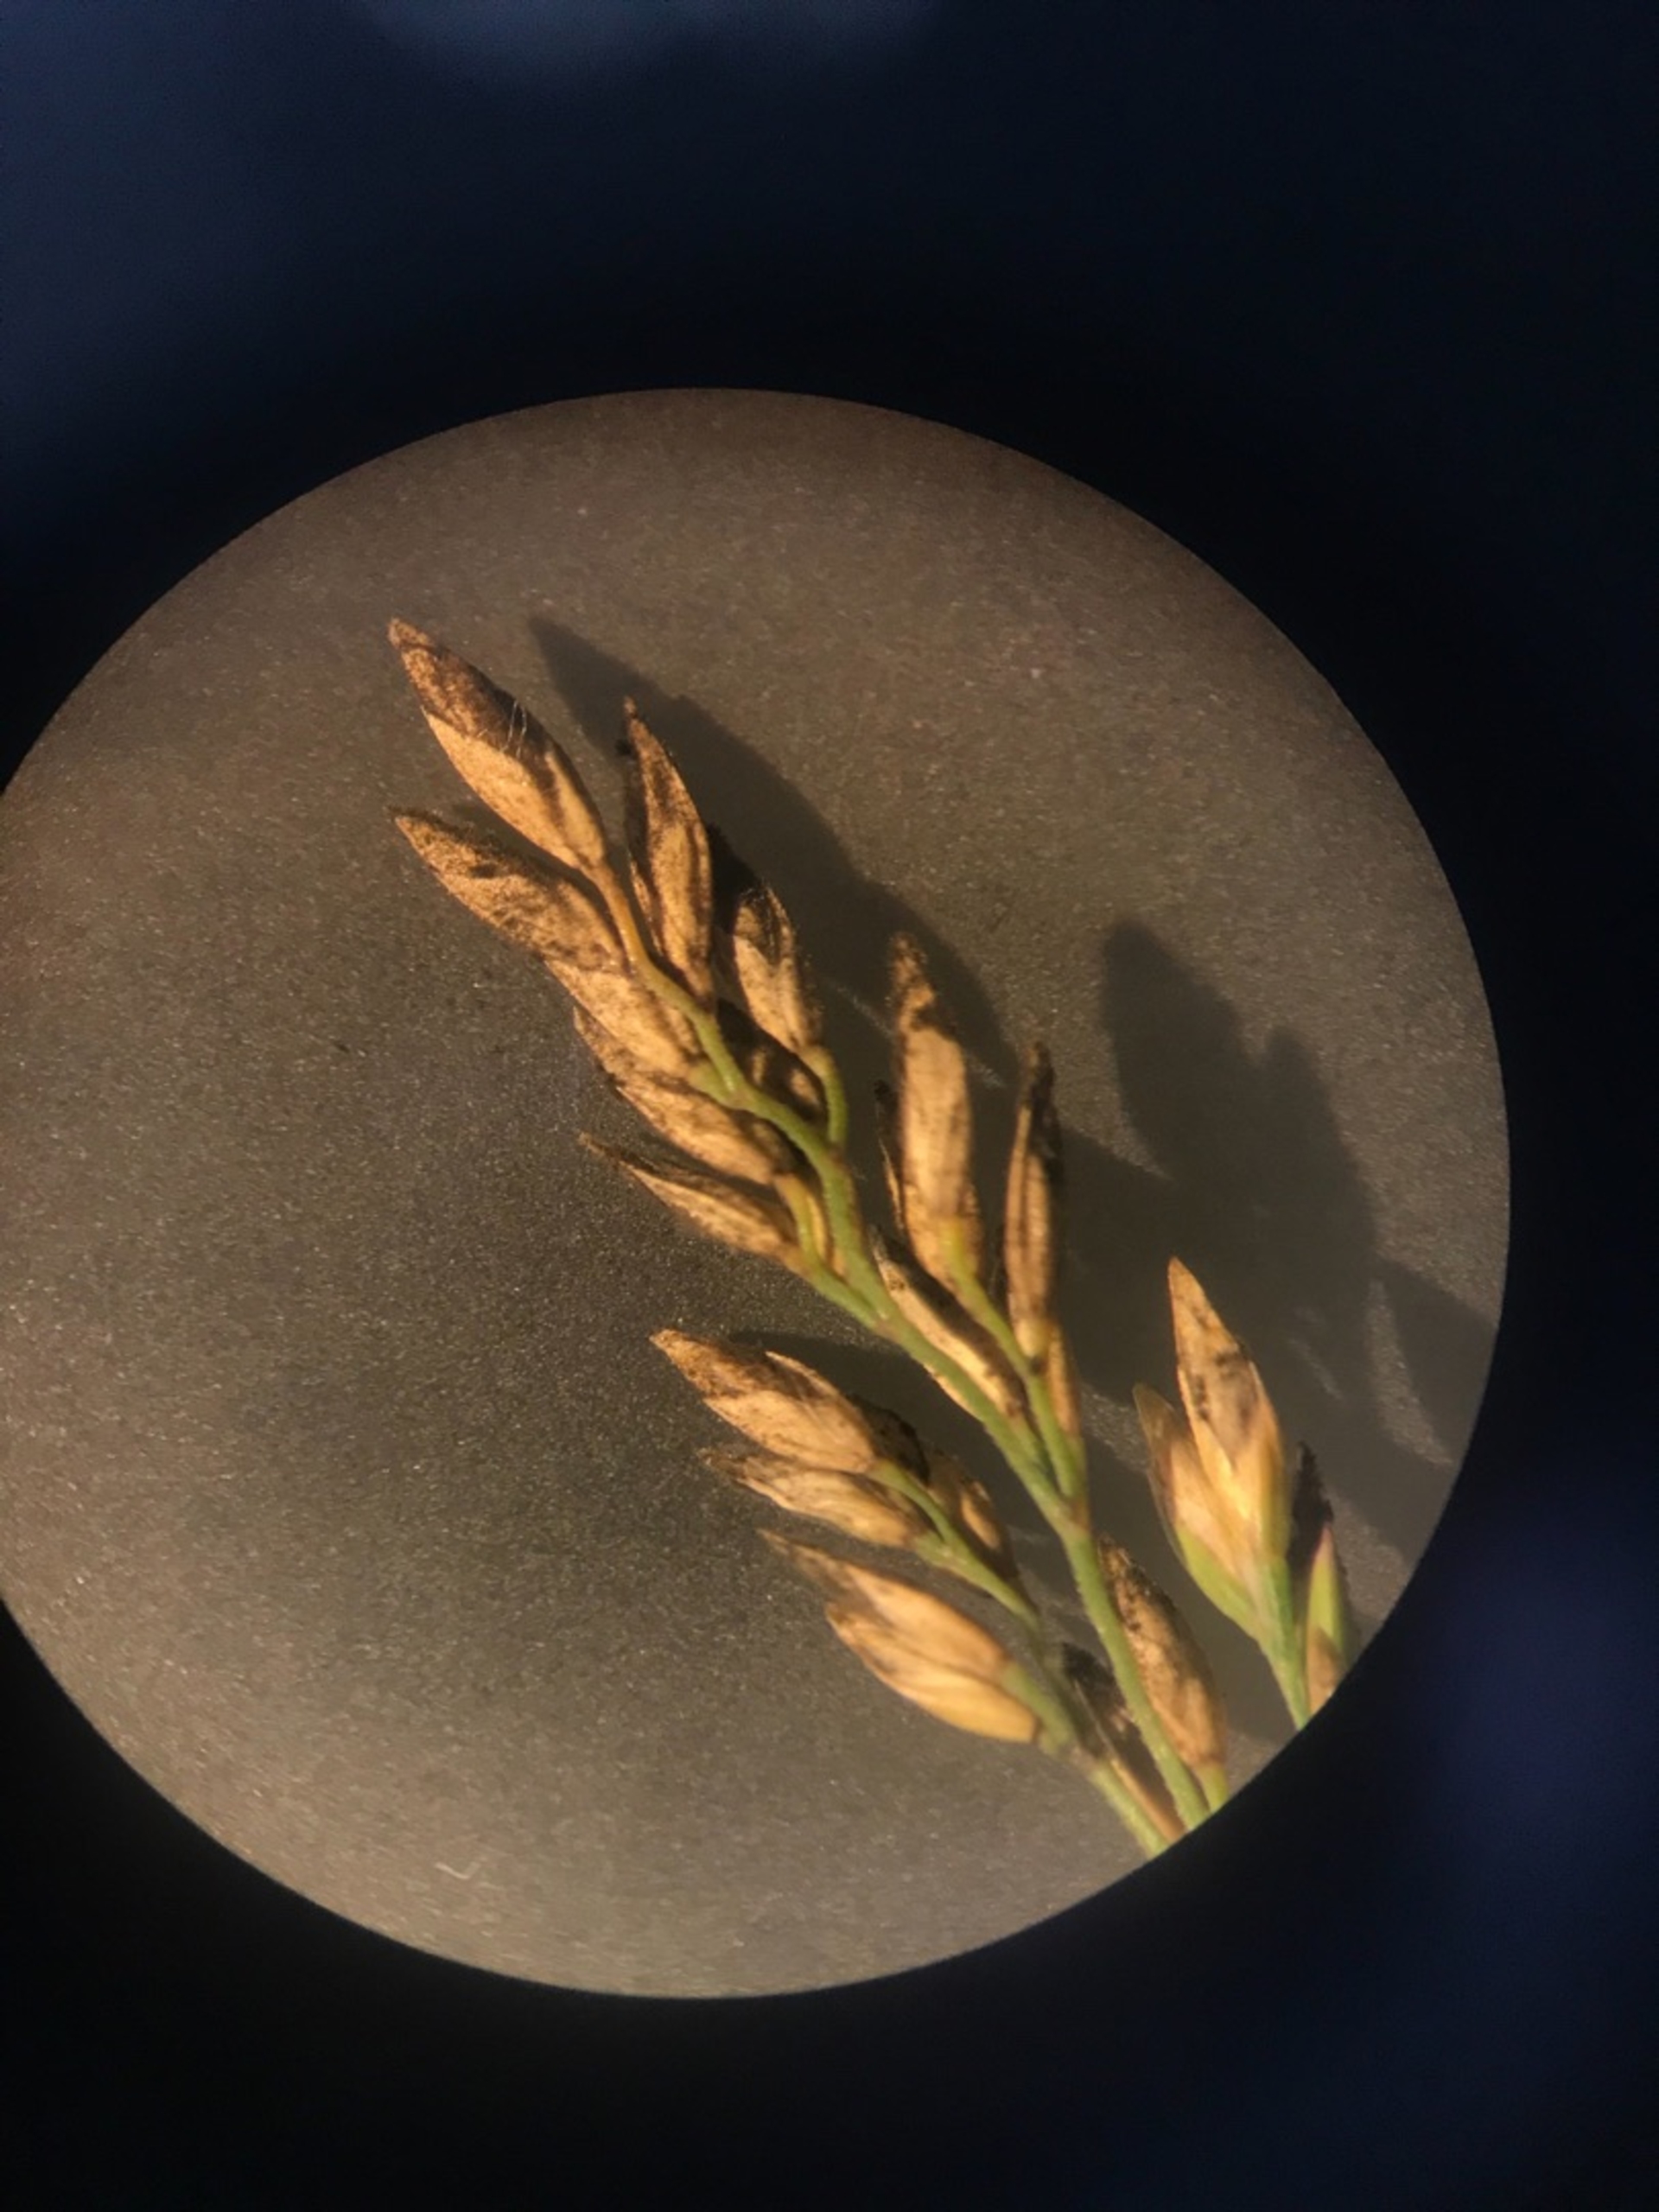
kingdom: Plantae
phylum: Tracheophyta
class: Liliopsida
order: Poales
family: Poaceae
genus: Poa
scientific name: Poa compressa
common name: Fladstrået rapgræs
